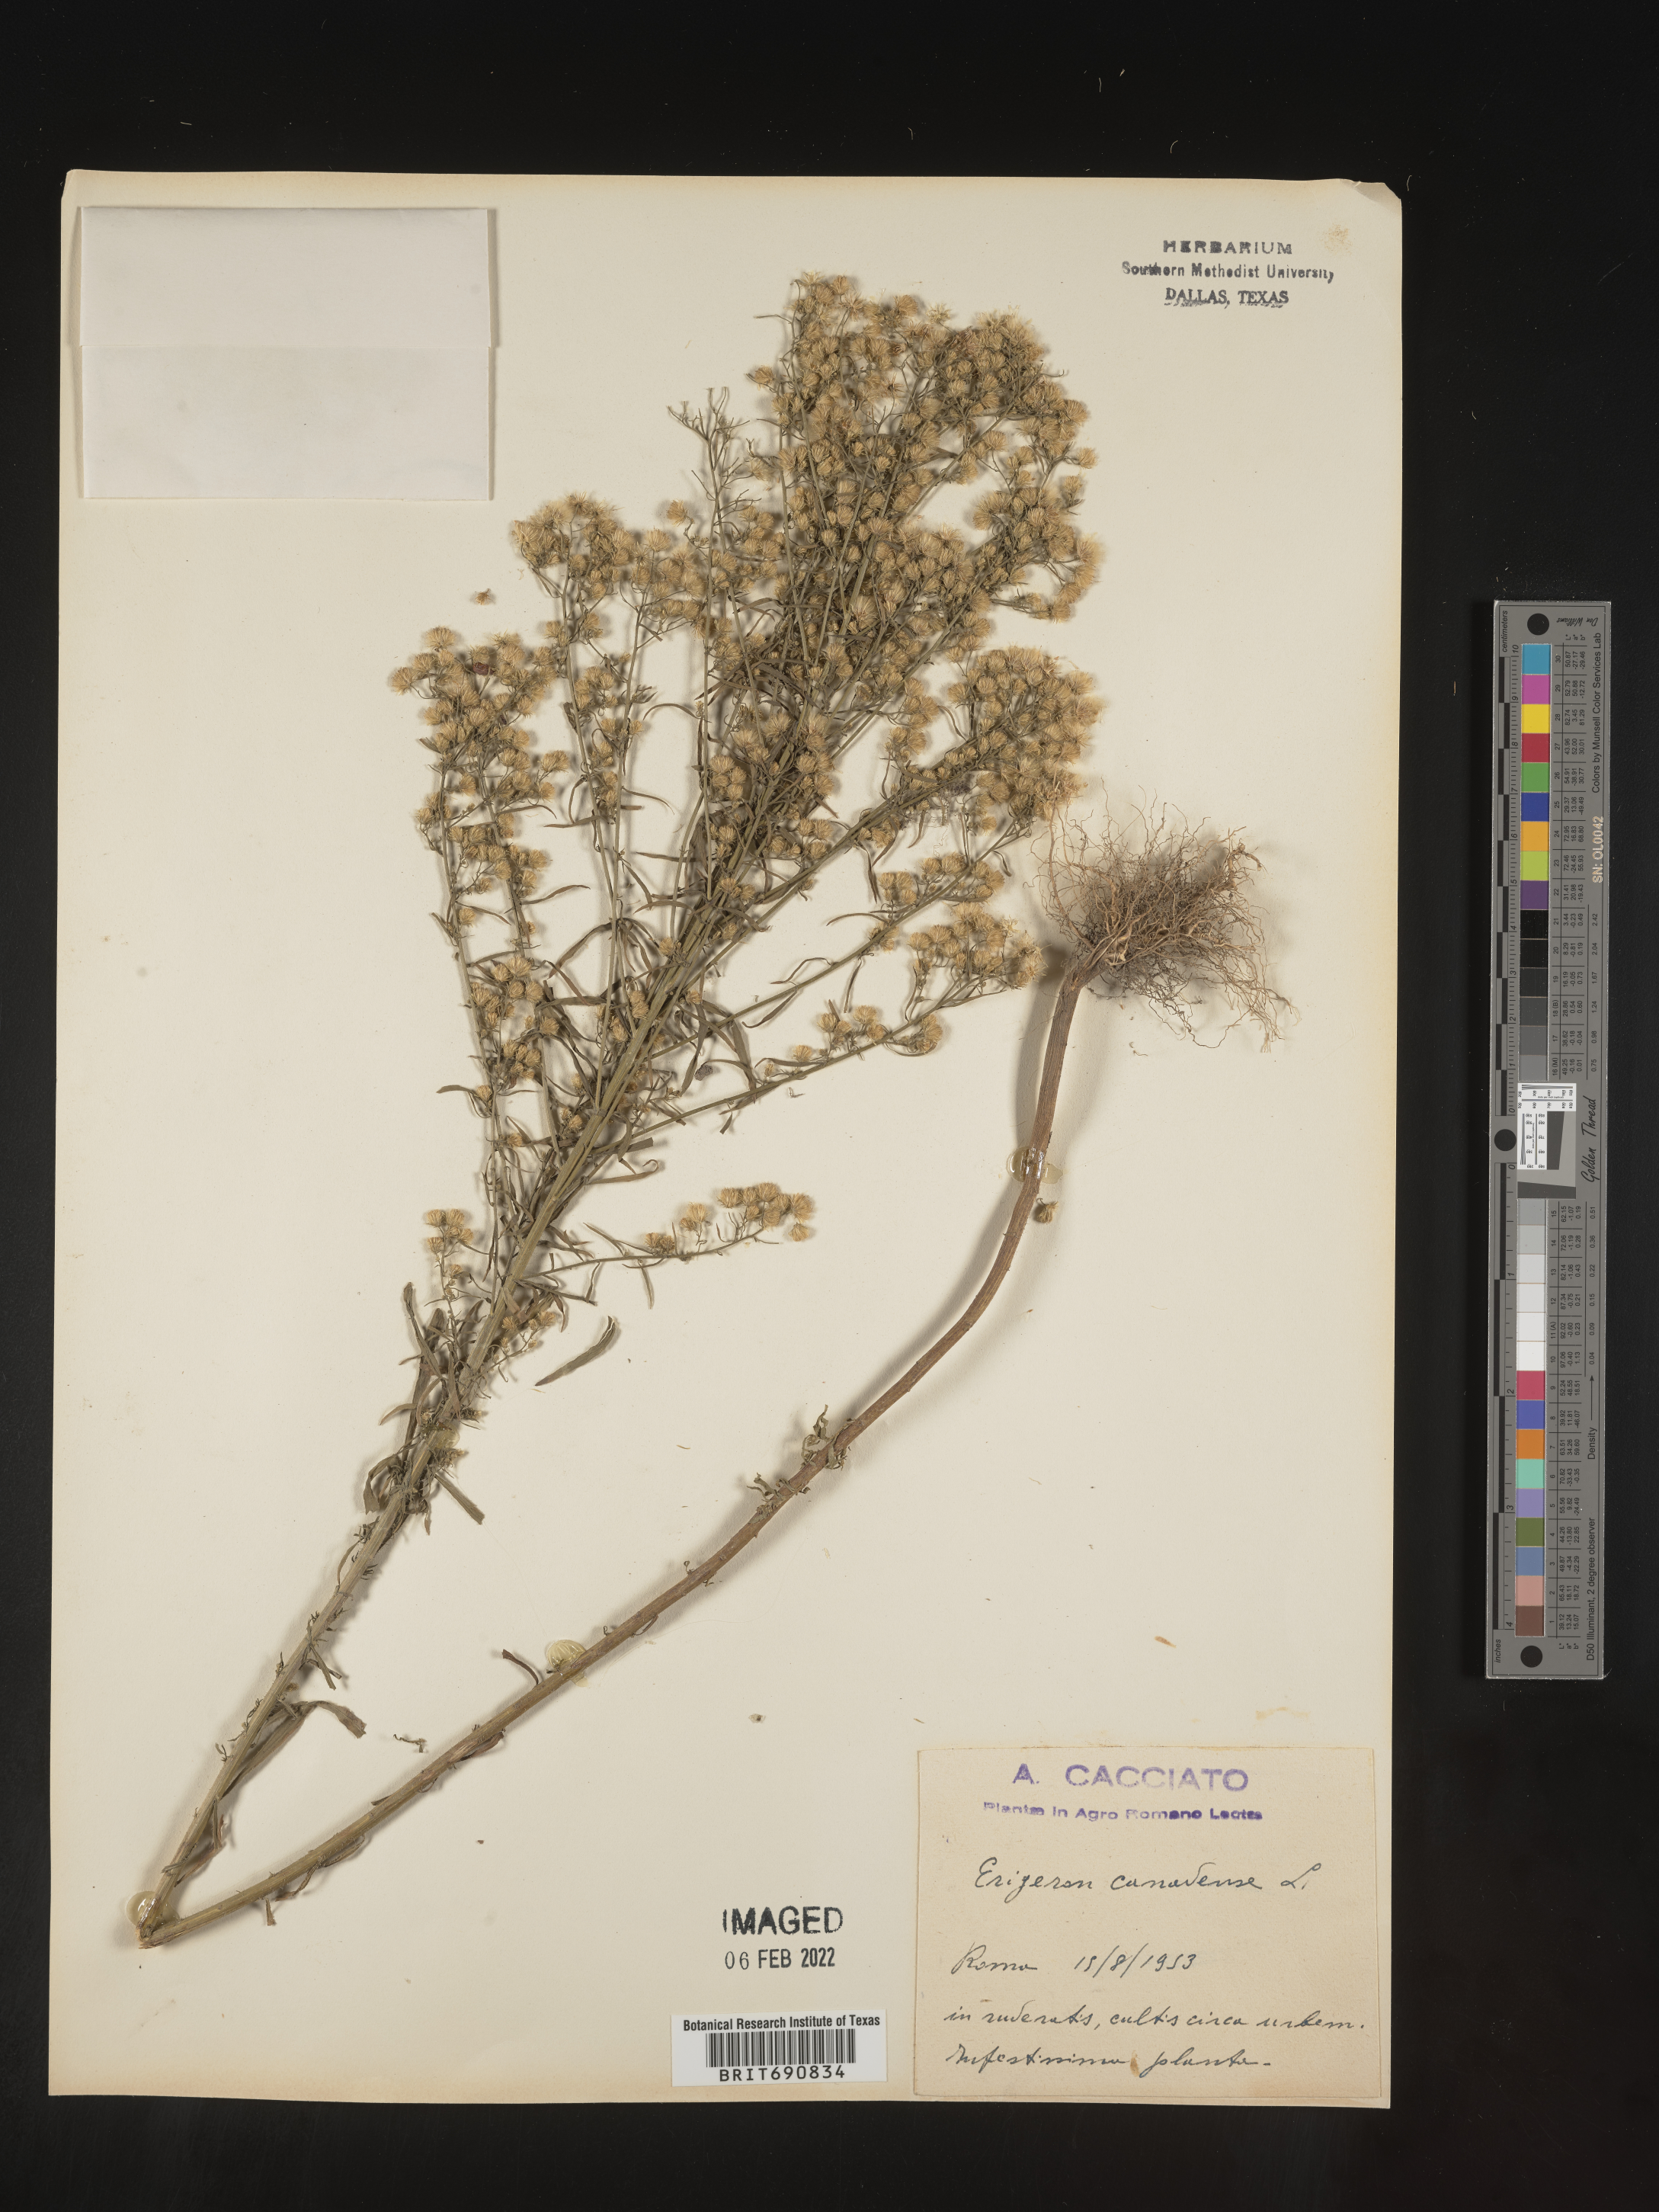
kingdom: Plantae
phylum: Tracheophyta
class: Magnoliopsida
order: Asterales
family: Asteraceae
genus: Conyza
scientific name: Conyza
